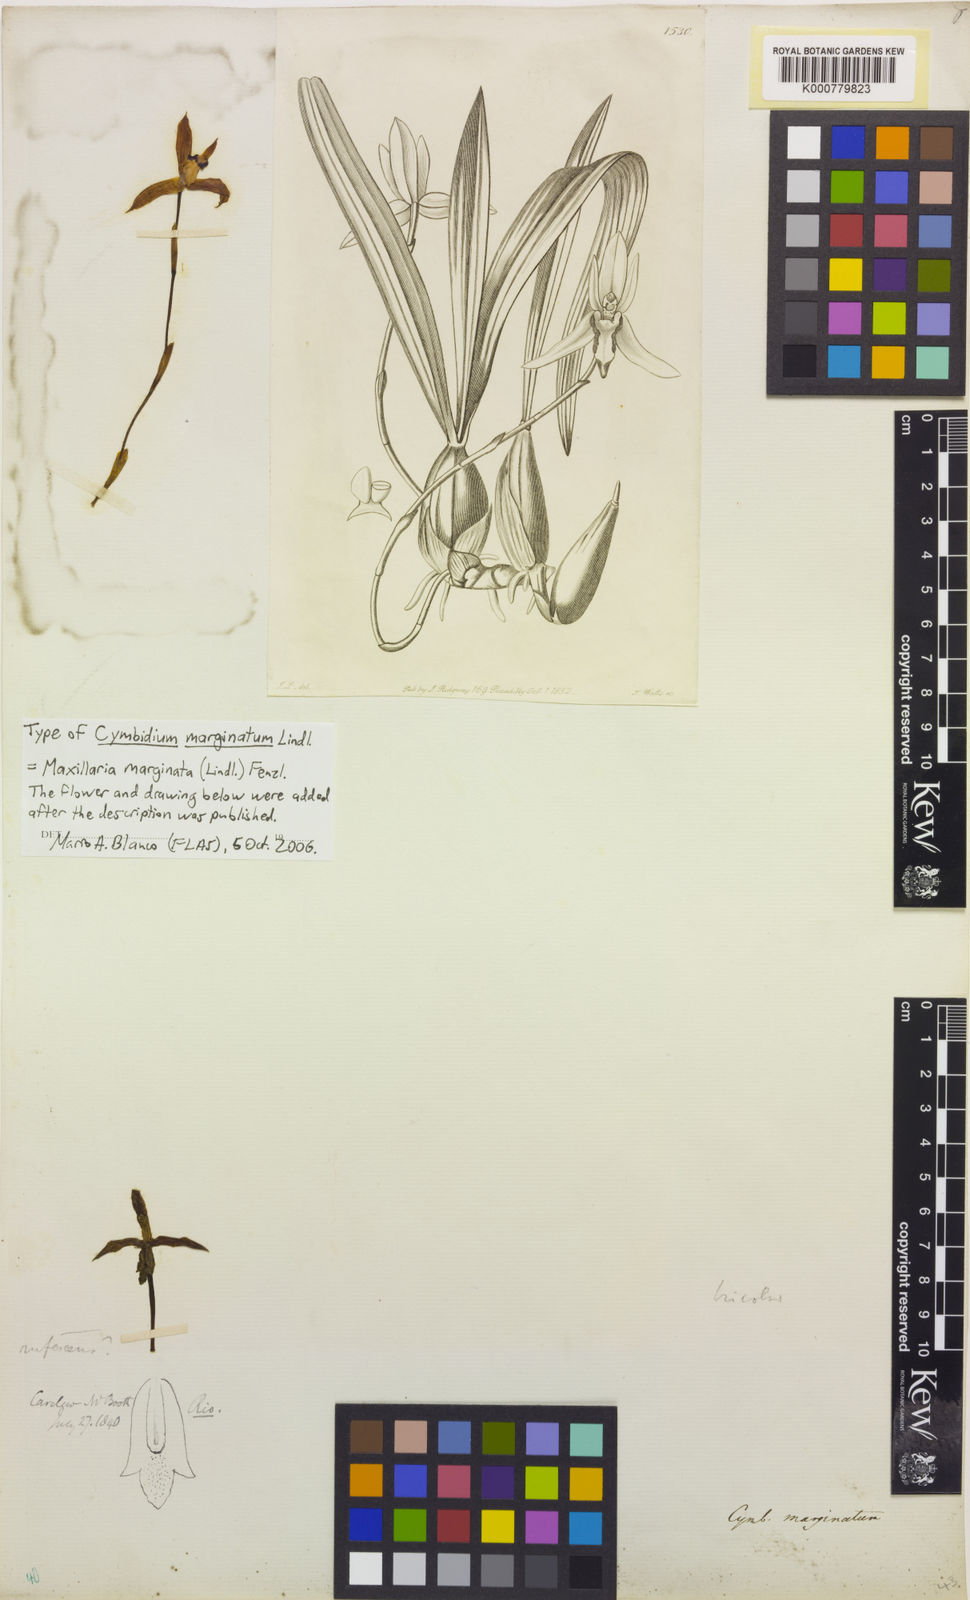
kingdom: Plantae
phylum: Tracheophyta
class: Liliopsida
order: Asparagales
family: Orchidaceae
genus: Maxillaria
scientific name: Maxillaria marginata
